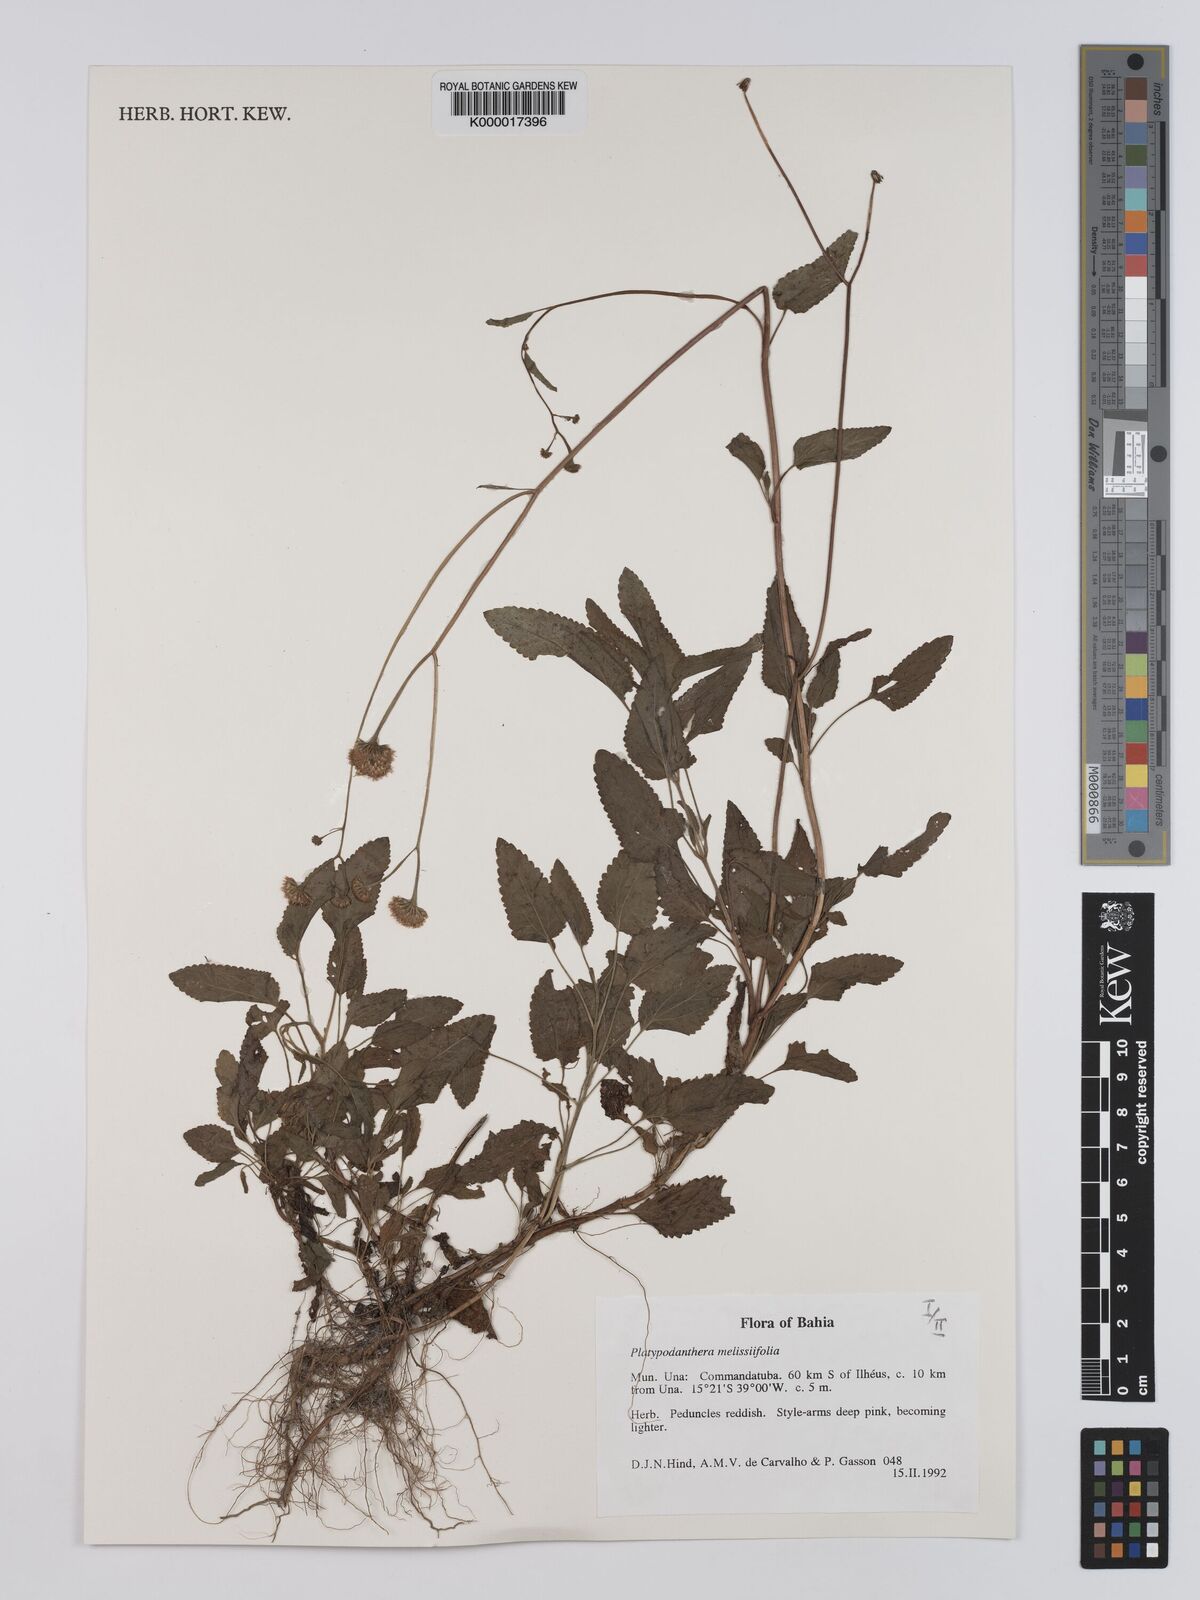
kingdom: Plantae
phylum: Tracheophyta
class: Magnoliopsida
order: Asterales
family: Asteraceae
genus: Platypodanthera
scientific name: Platypodanthera melissifolia
